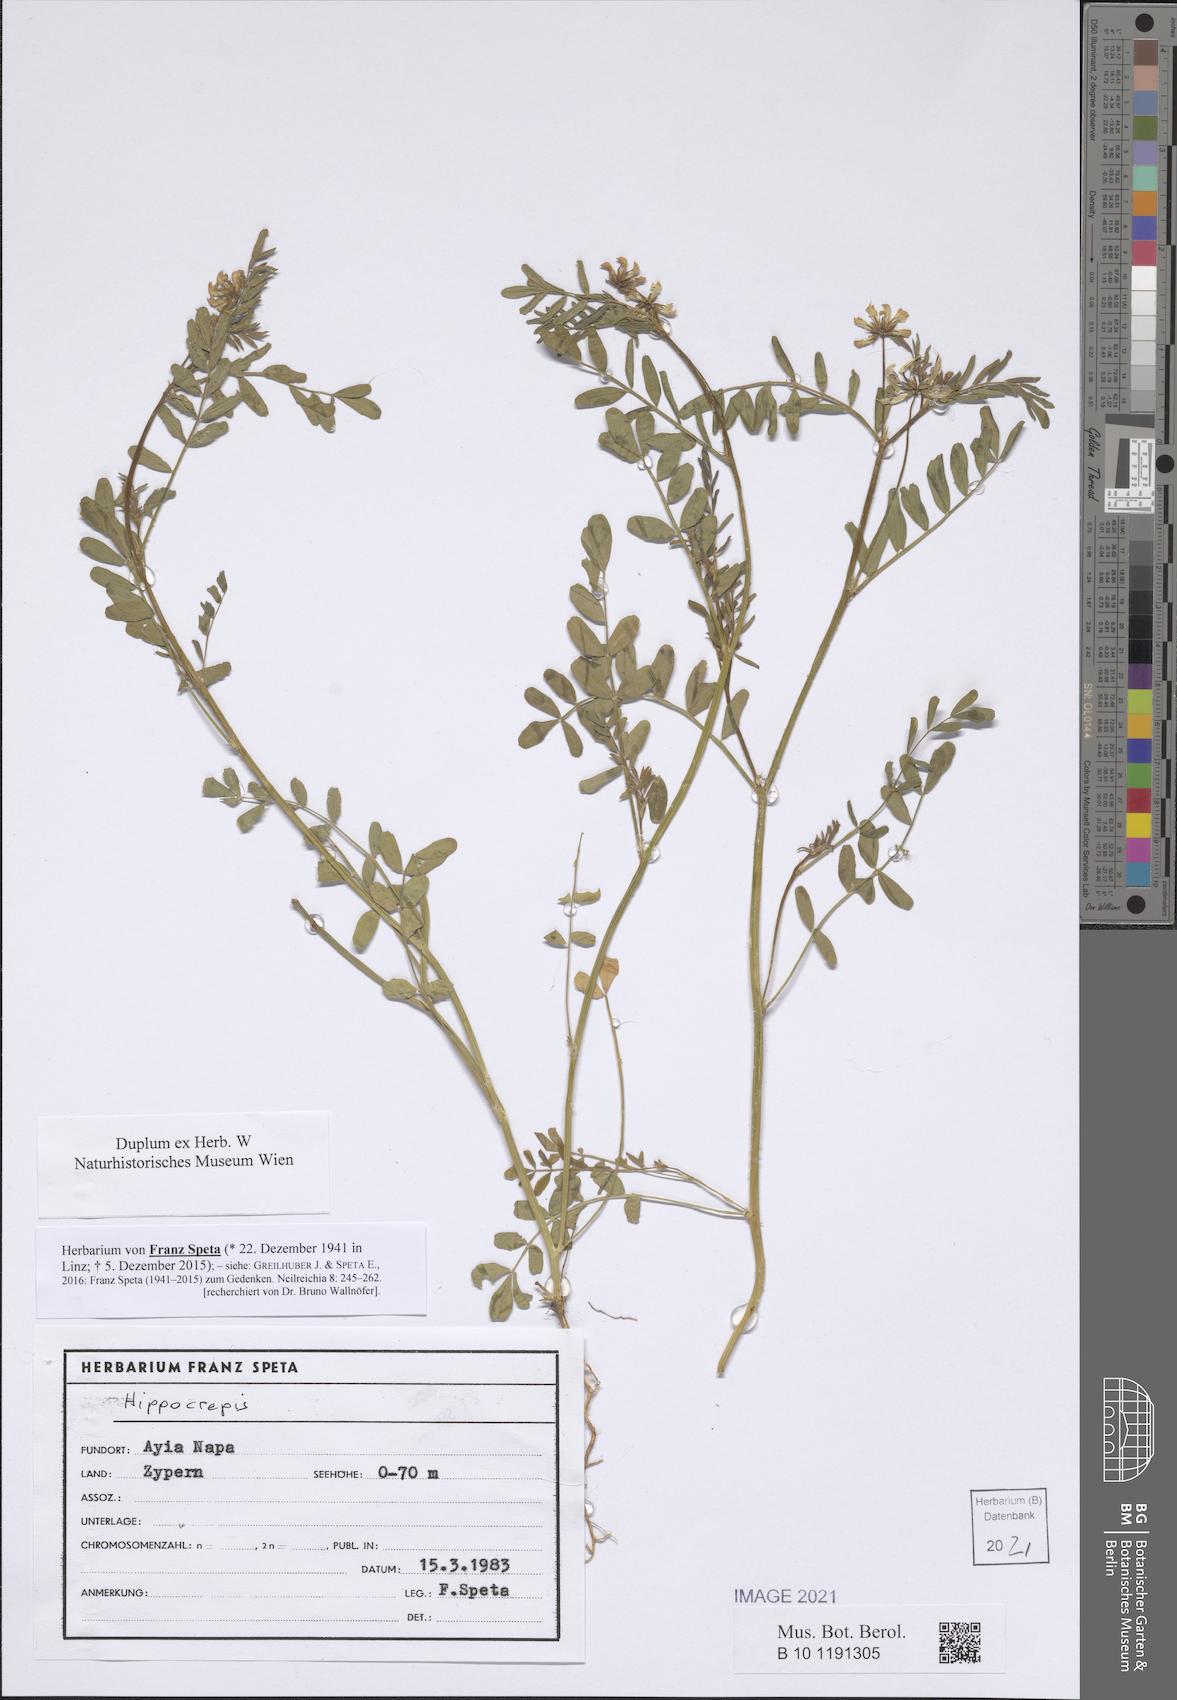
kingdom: Plantae
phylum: Tracheophyta
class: Magnoliopsida
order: Fabales
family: Fabaceae
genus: Hippocrepis
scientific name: Hippocrepis
